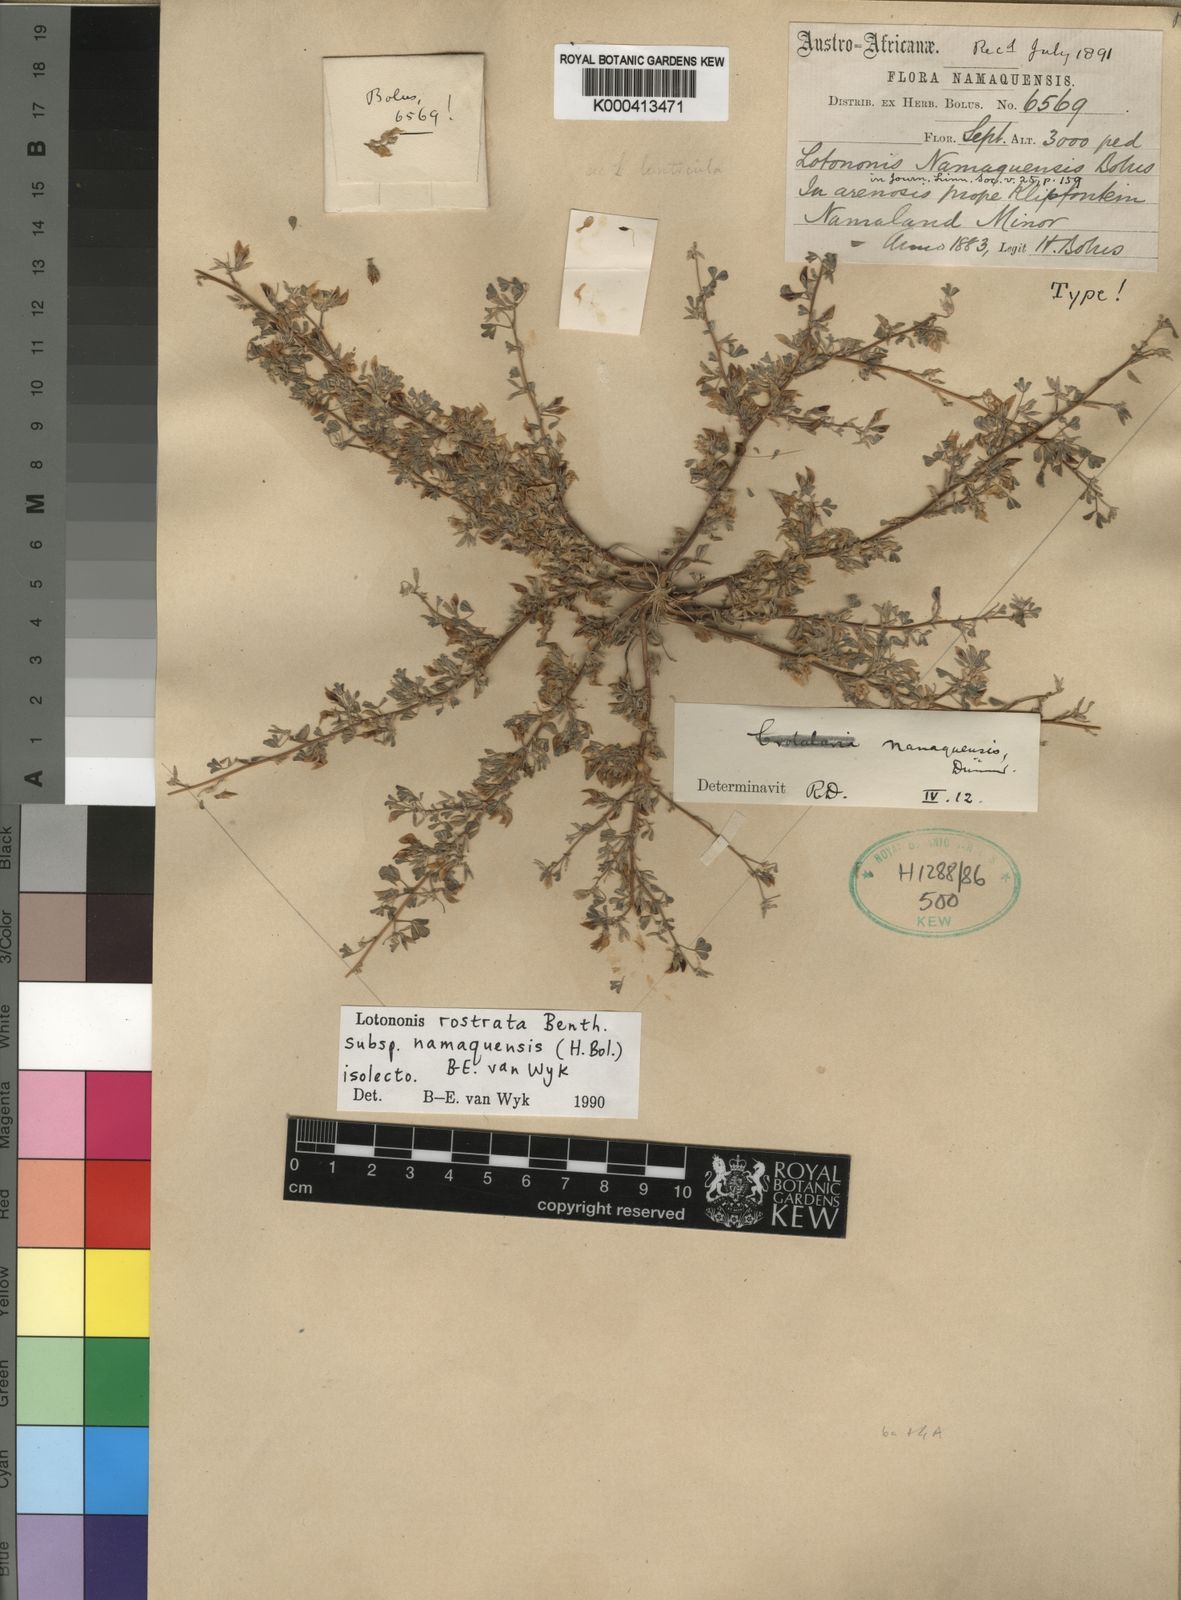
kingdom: Plantae
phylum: Tracheophyta
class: Magnoliopsida
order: Fabales
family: Fabaceae
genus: Lotononis
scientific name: Lotononis rostrata
